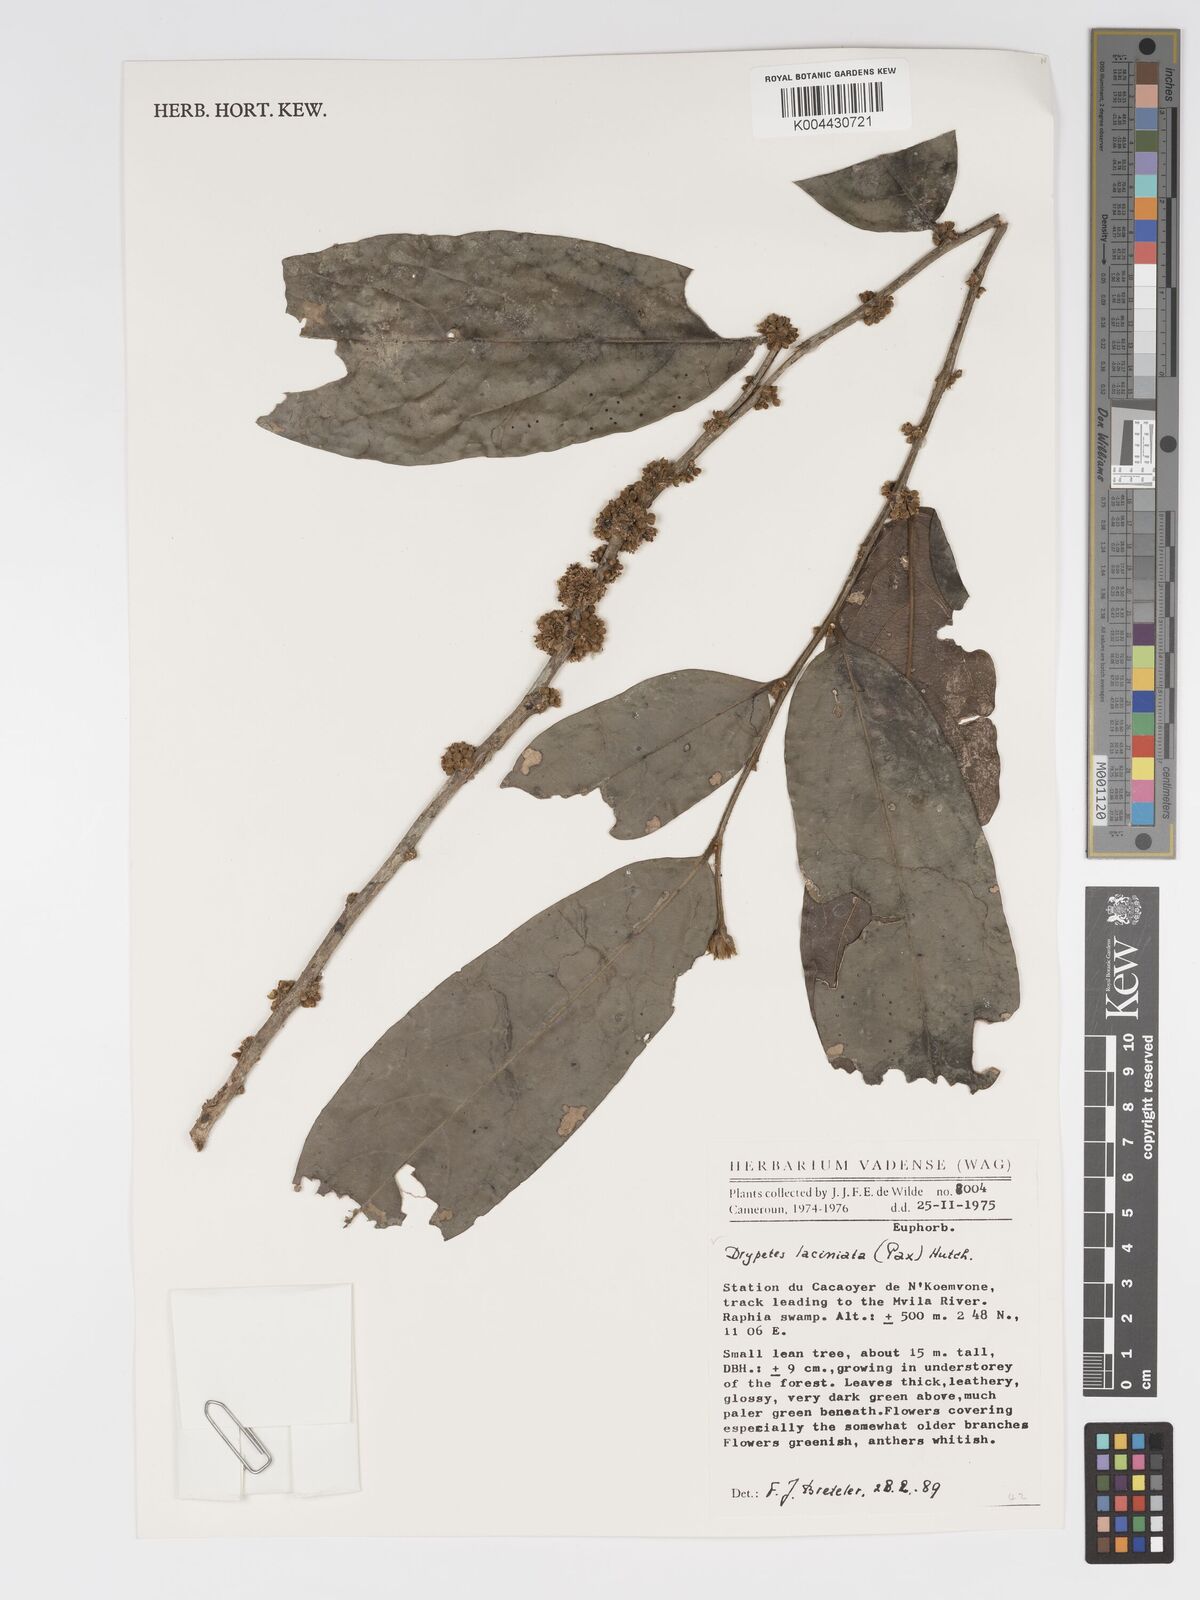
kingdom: Plantae
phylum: Tracheophyta
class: Magnoliopsida
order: Malpighiales
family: Putranjivaceae
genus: Drypetes
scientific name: Drypetes laciniata
